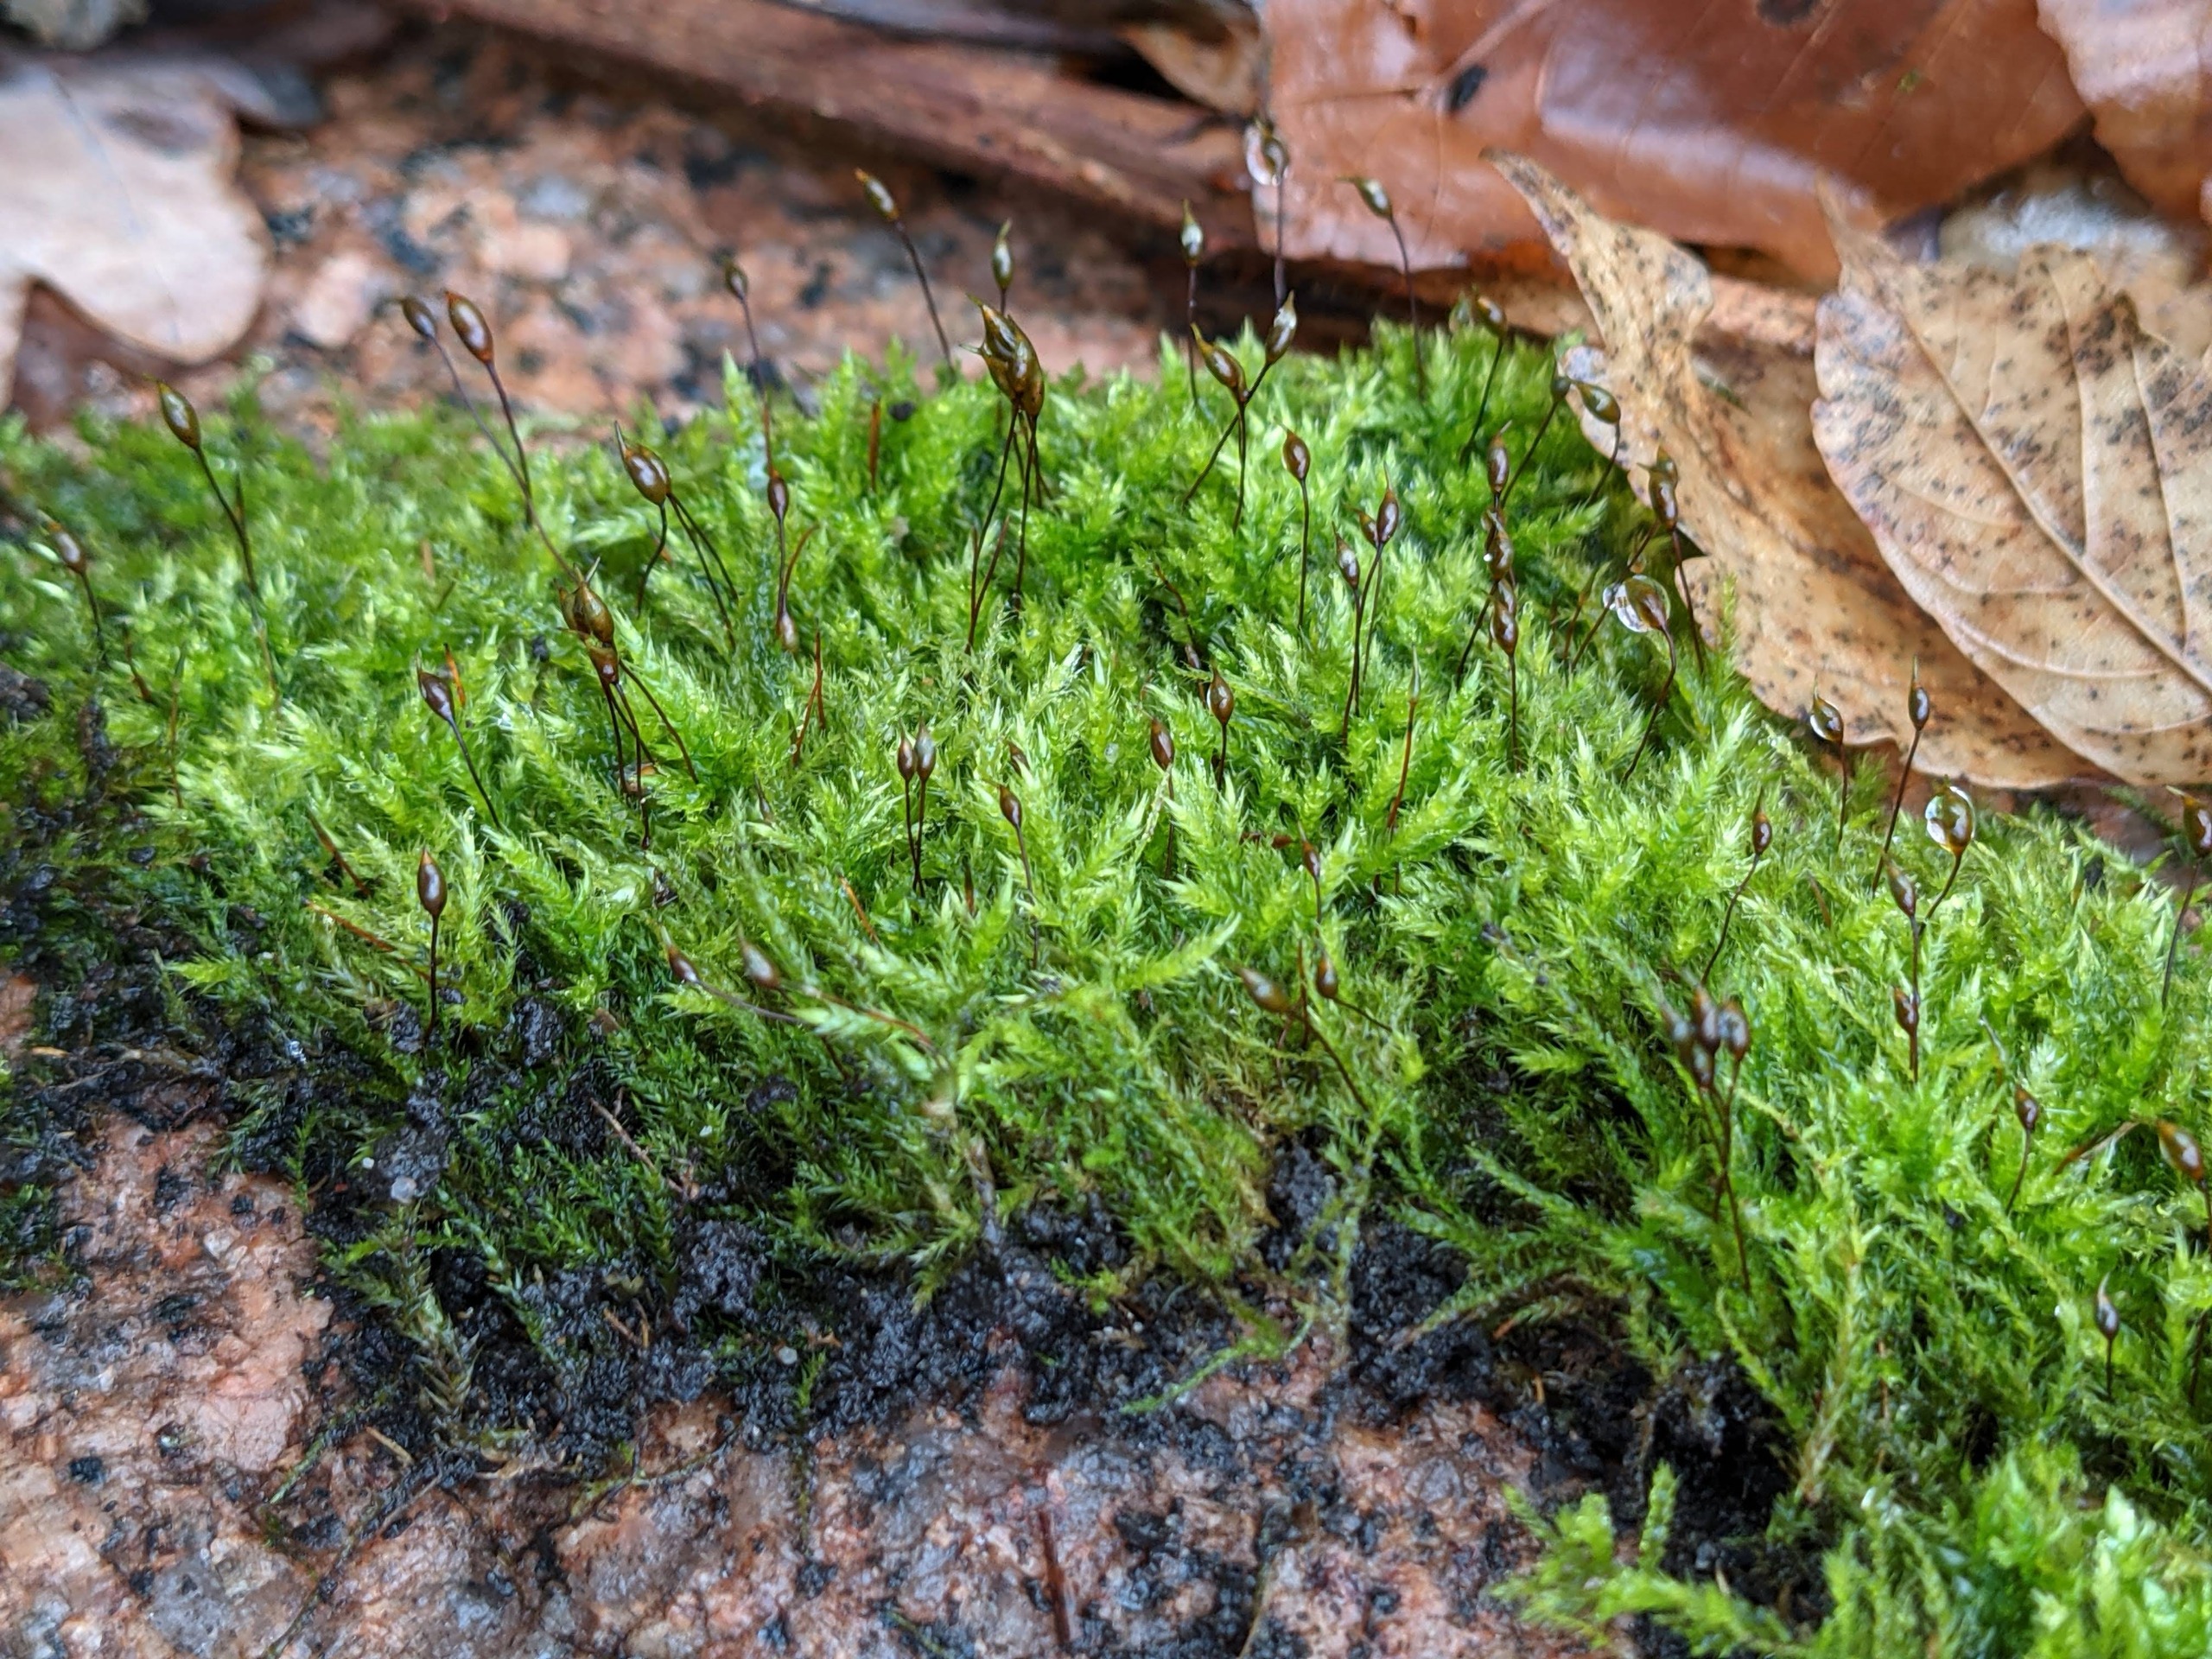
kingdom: Plantae
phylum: Bryophyta
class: Bryopsida
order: Hypnales
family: Brachytheciaceae
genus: Sciuro-hypnum
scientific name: Sciuro-hypnum populeum
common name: Park-kortkapsel
